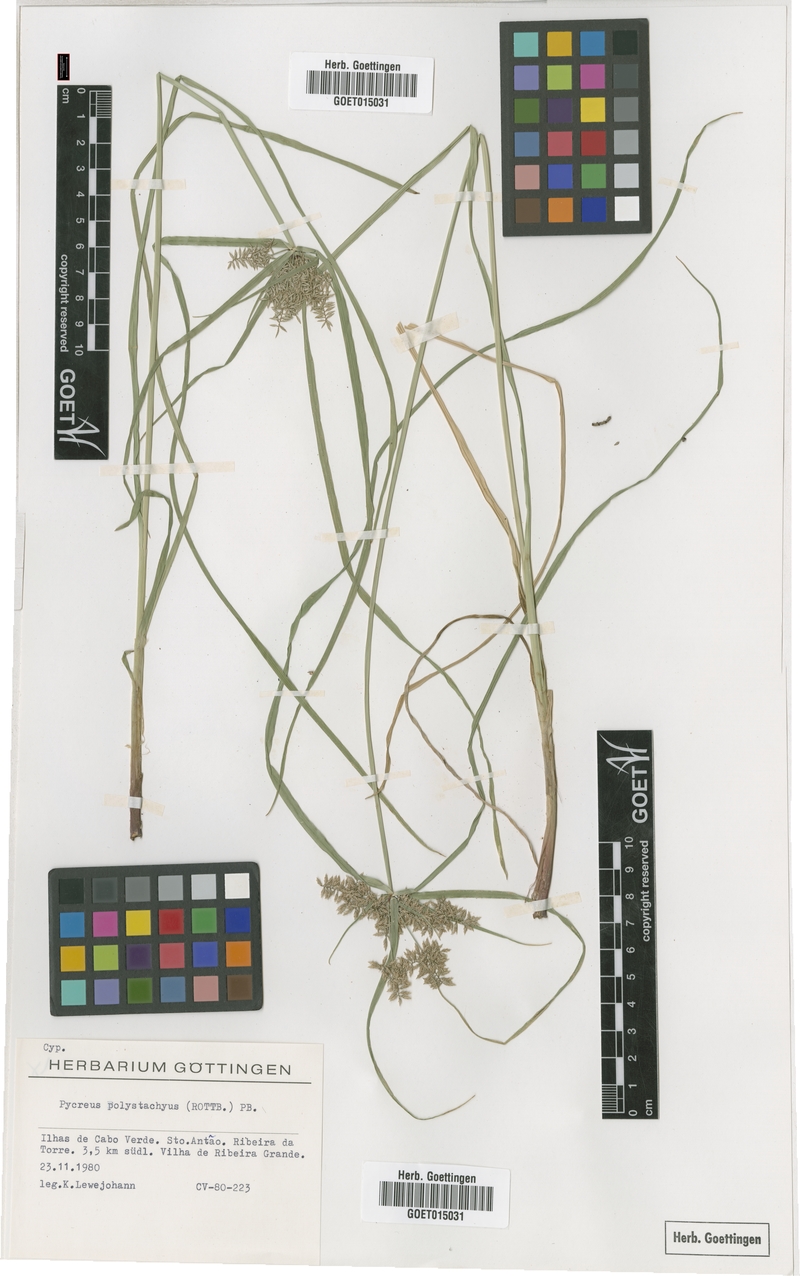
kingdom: Plantae
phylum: Tracheophyta
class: Liliopsida
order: Poales
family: Cyperaceae
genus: Cyperus
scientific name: Cyperus polystachyos
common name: Bunchy flat sedge
